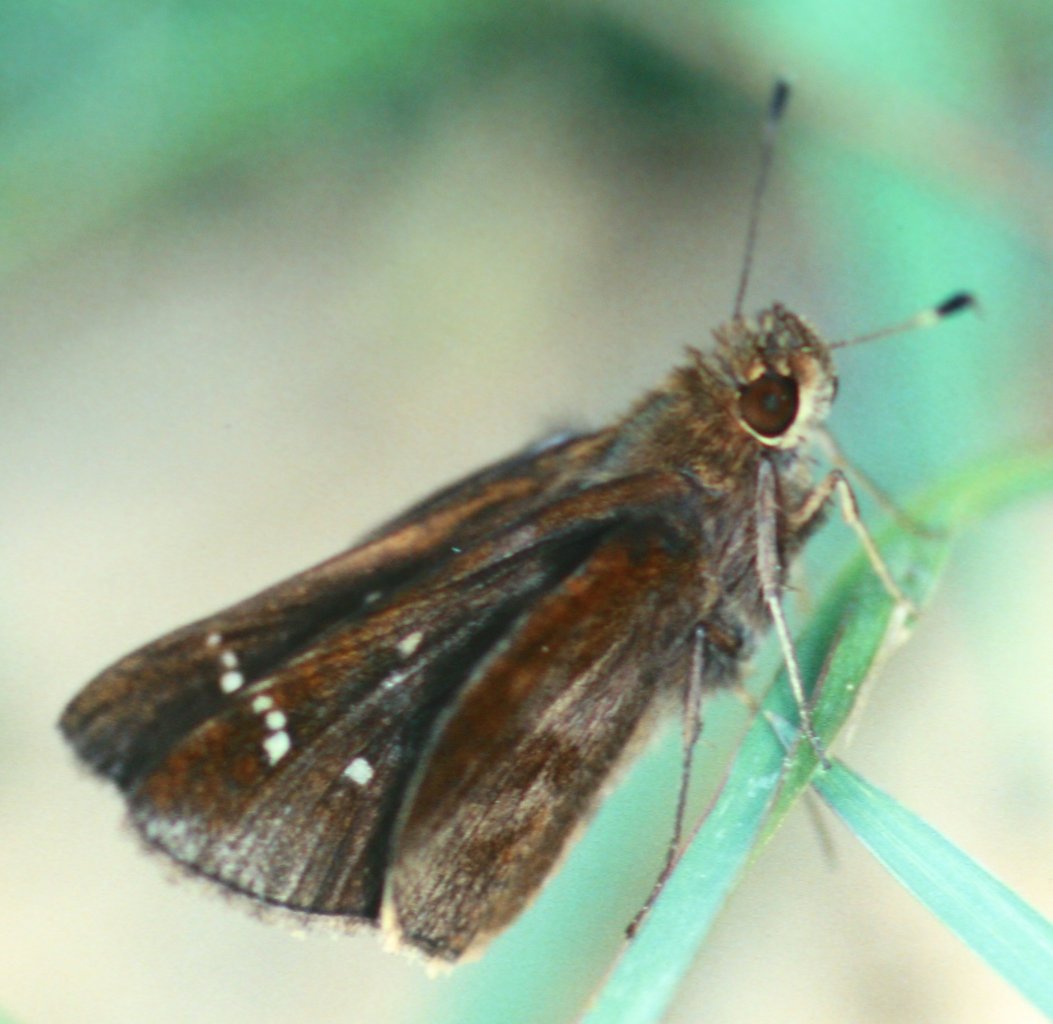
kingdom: Animalia
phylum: Arthropoda
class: Insecta
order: Lepidoptera
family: Hesperiidae
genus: Lerema
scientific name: Lerema accius
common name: Clouded Skipper
